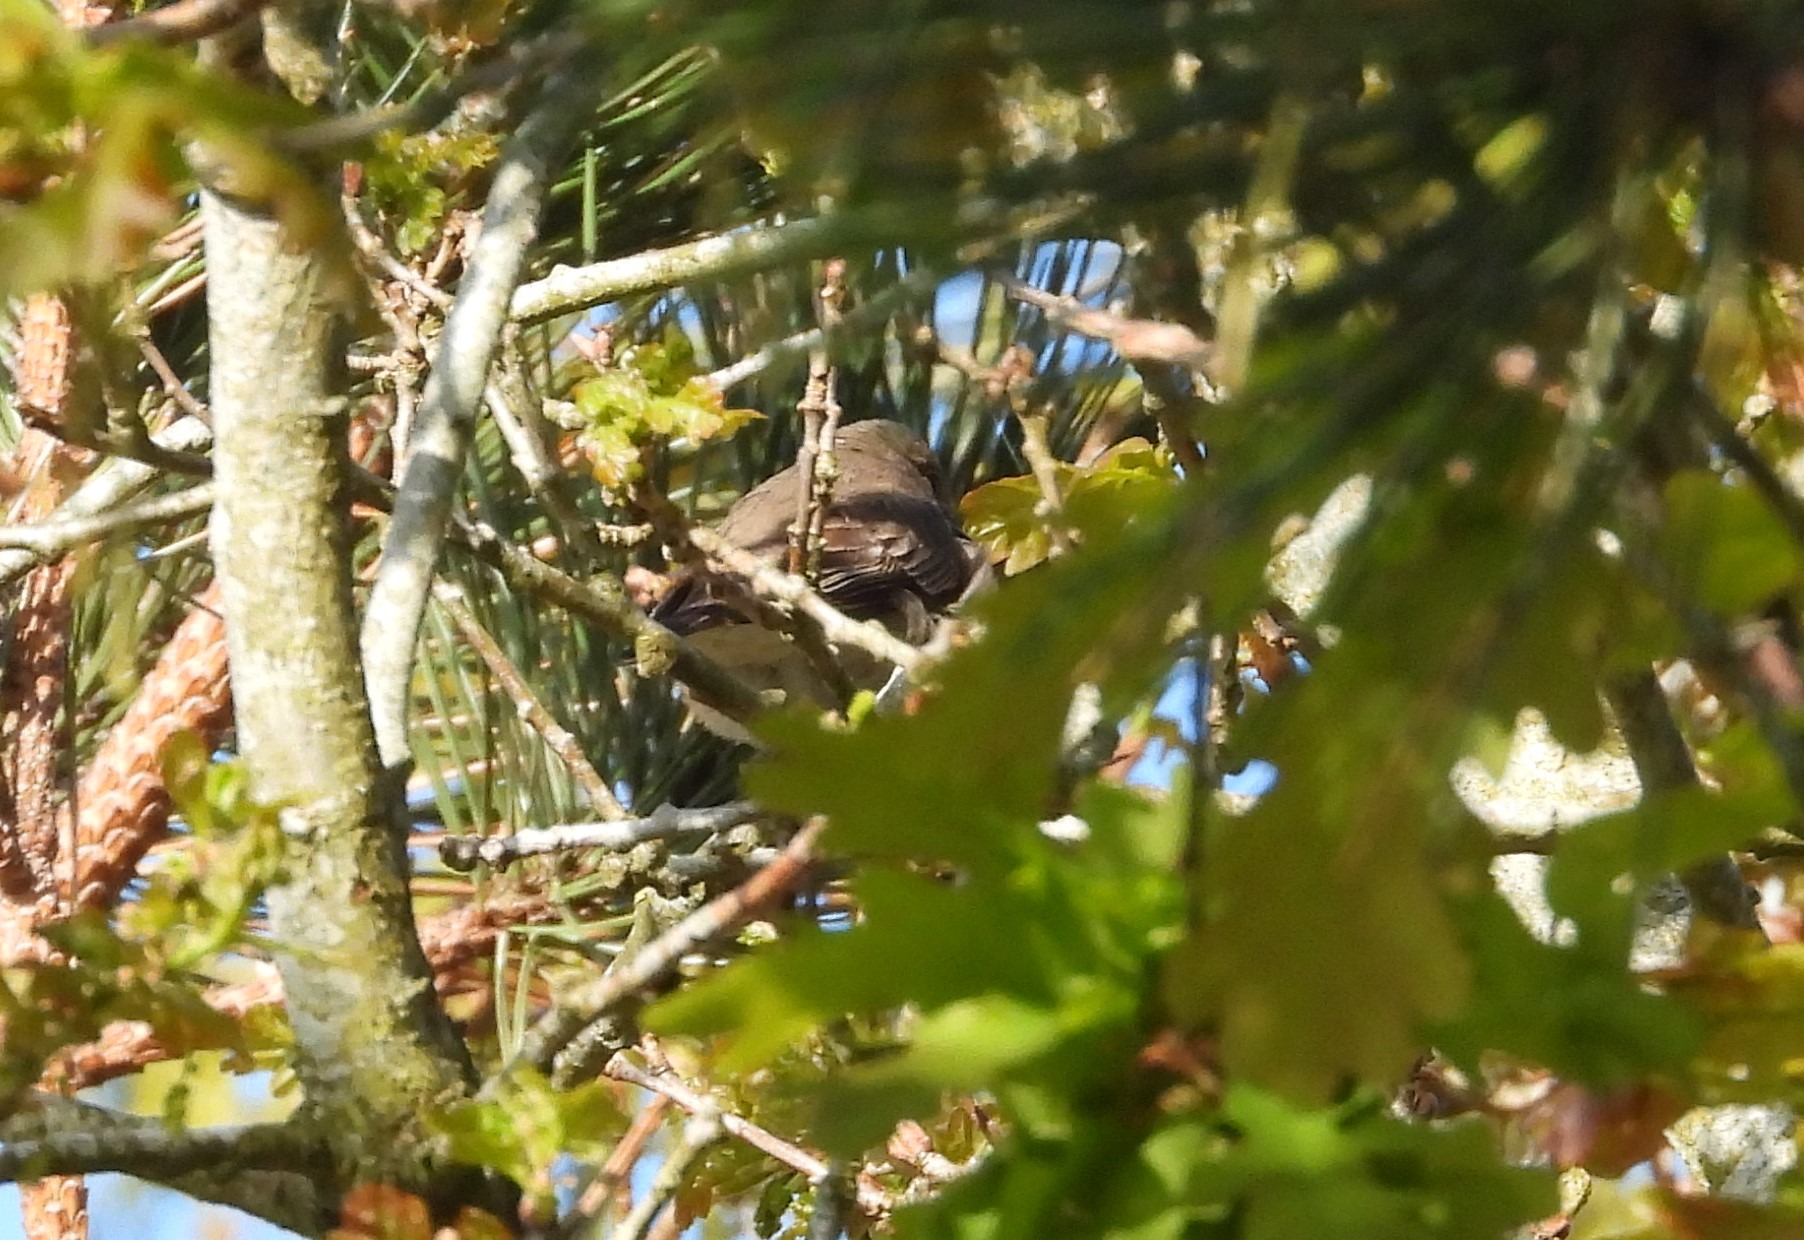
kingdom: Animalia
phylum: Chordata
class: Aves
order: Passeriformes
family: Muscicapidae
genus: Muscicapa
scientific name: Muscicapa striata
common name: Grå fluesnapper
